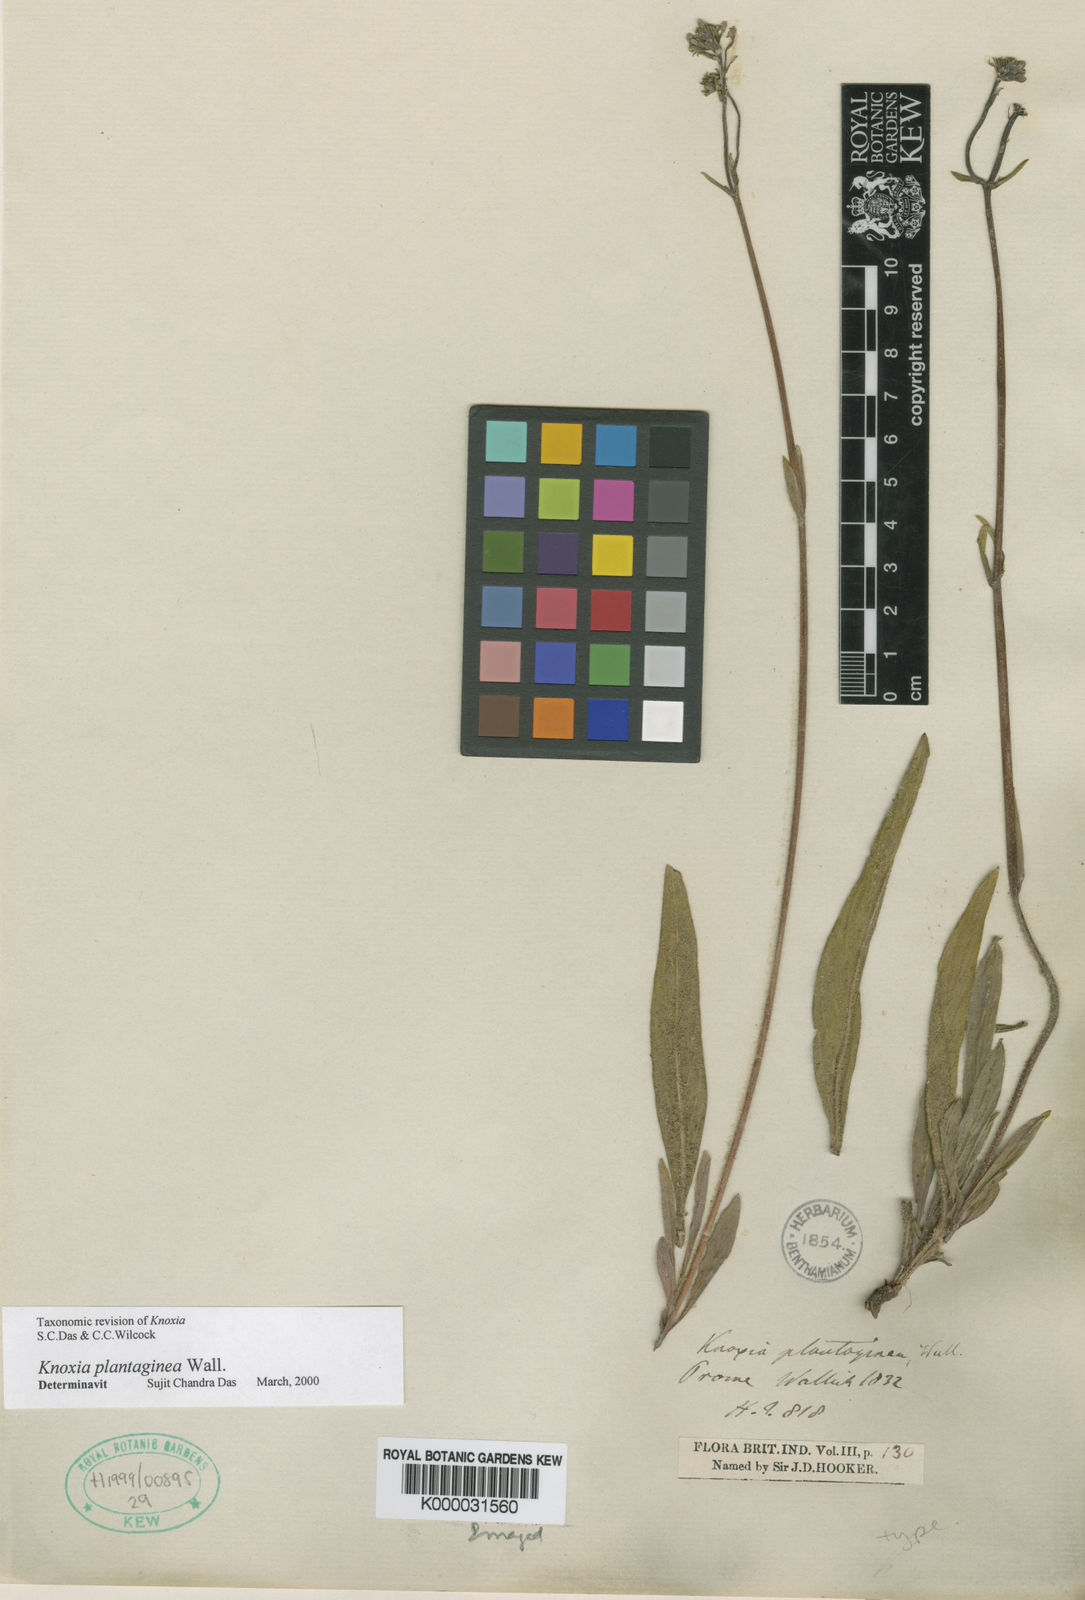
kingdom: Plantae
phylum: Tracheophyta
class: Magnoliopsida
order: Gentianales
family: Rubiaceae
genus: Knoxia
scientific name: Knoxia plantaginea
